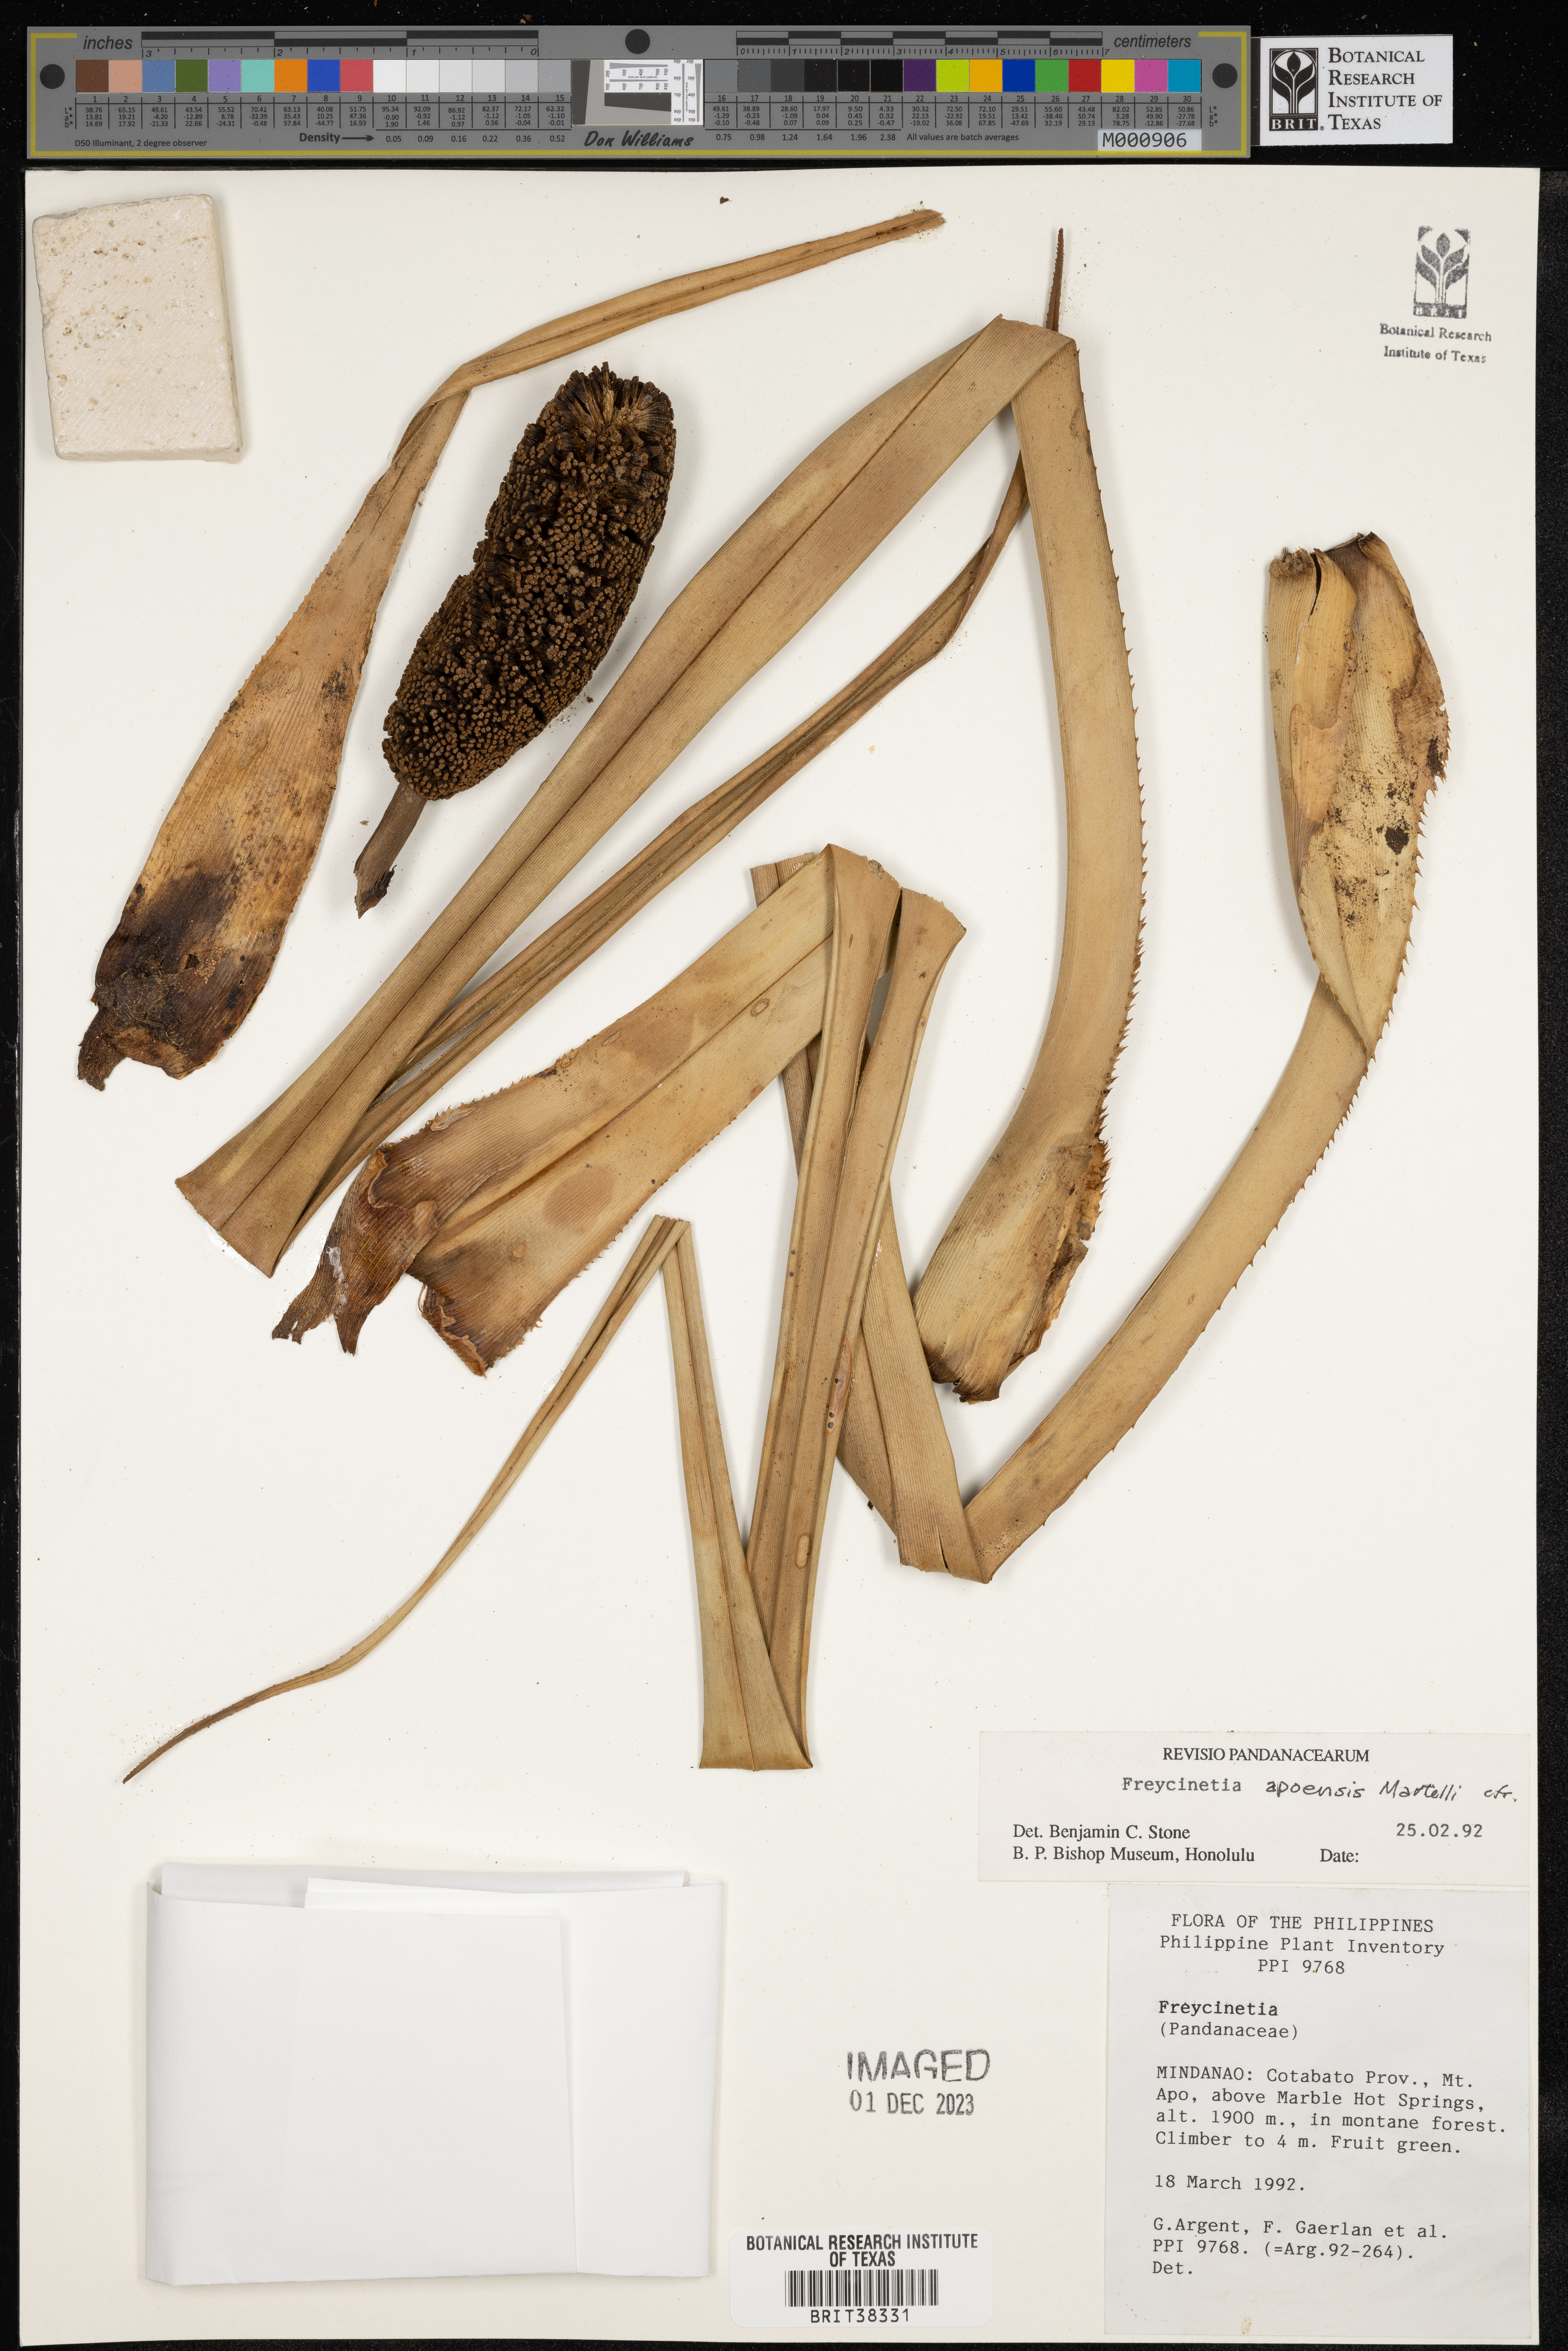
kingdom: Plantae
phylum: Tracheophyta
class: Liliopsida
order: Pandanales
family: Pandanaceae
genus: Freycinetia
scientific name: Freycinetia apoensis
